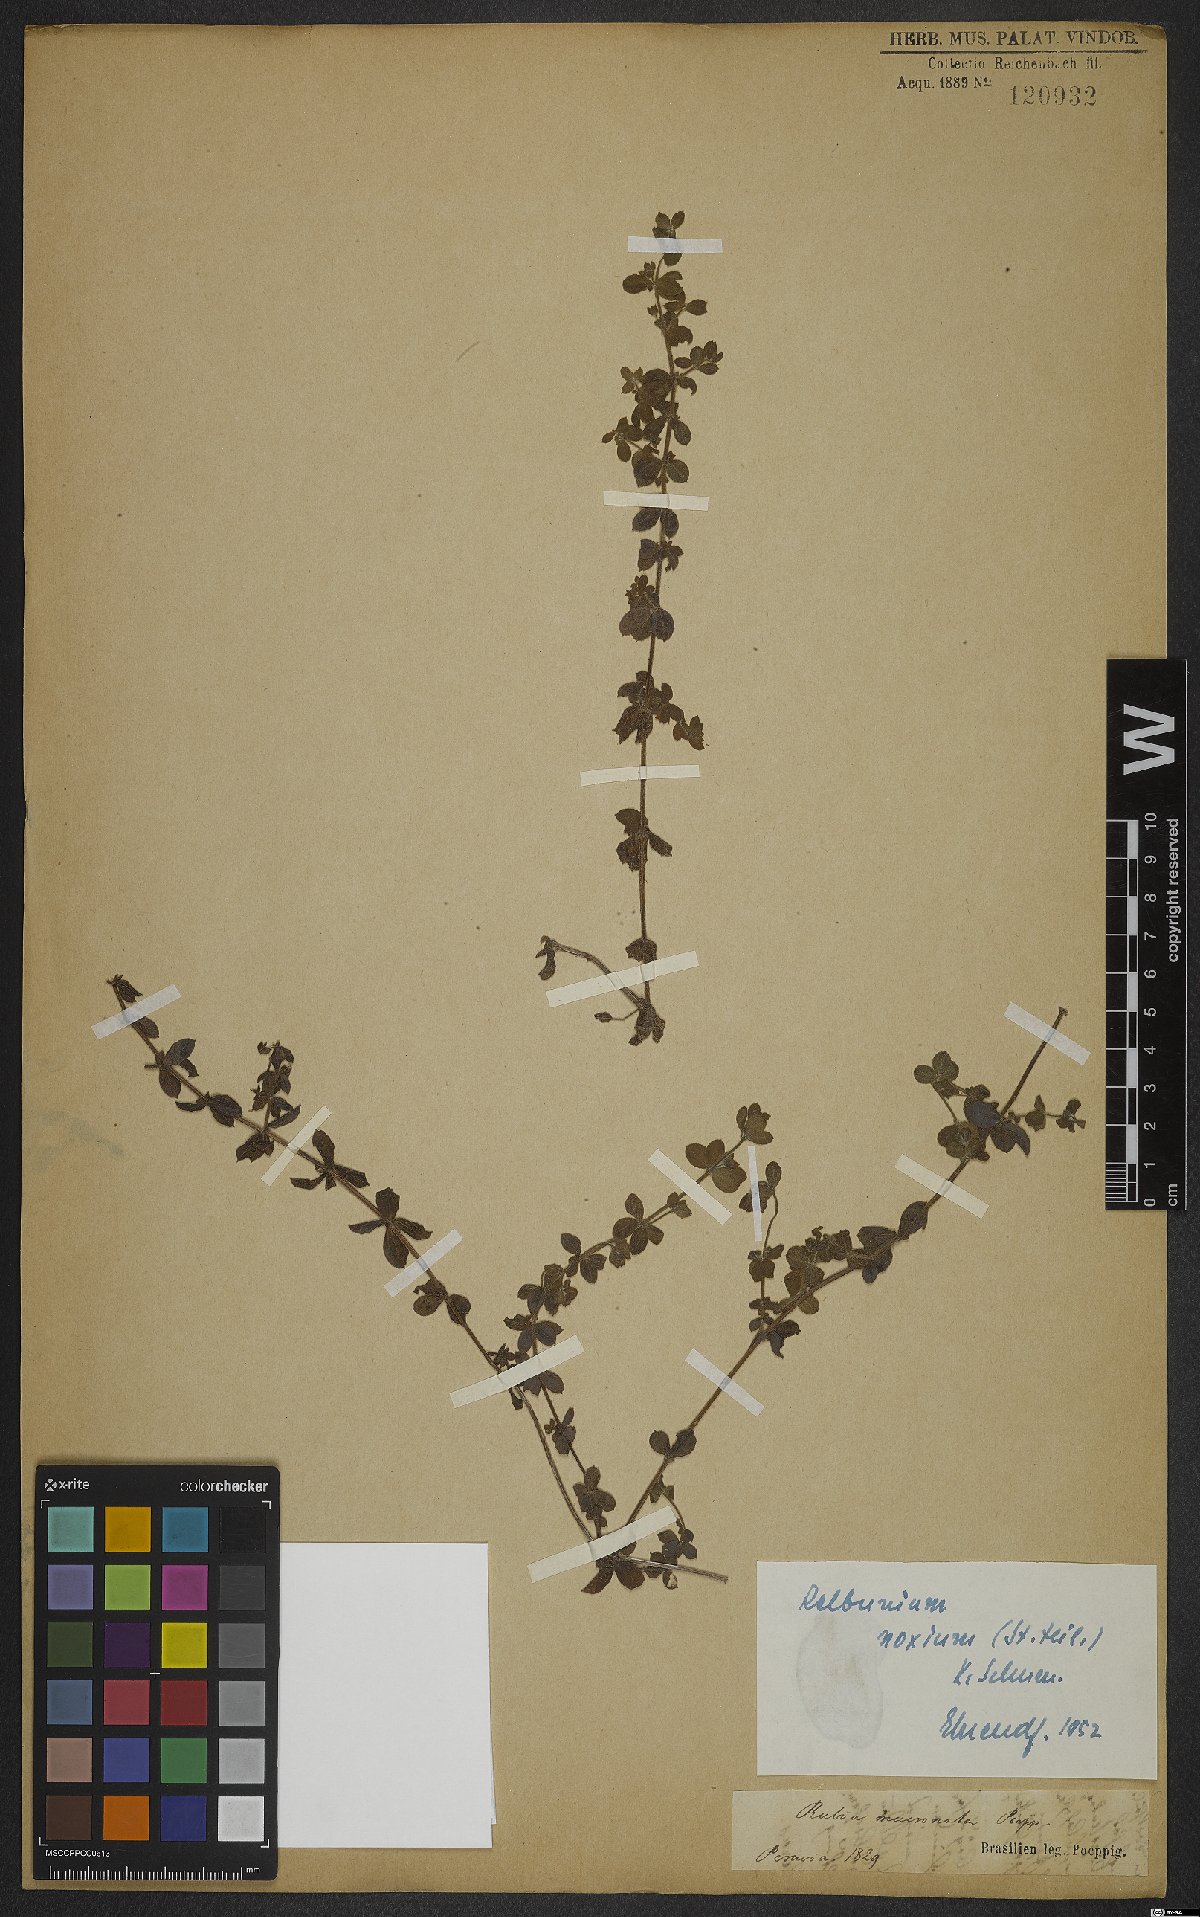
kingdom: Plantae
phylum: Tracheophyta
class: Magnoliopsida
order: Gentianales
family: Rubiaceae
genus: Galium
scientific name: Galium noxium
